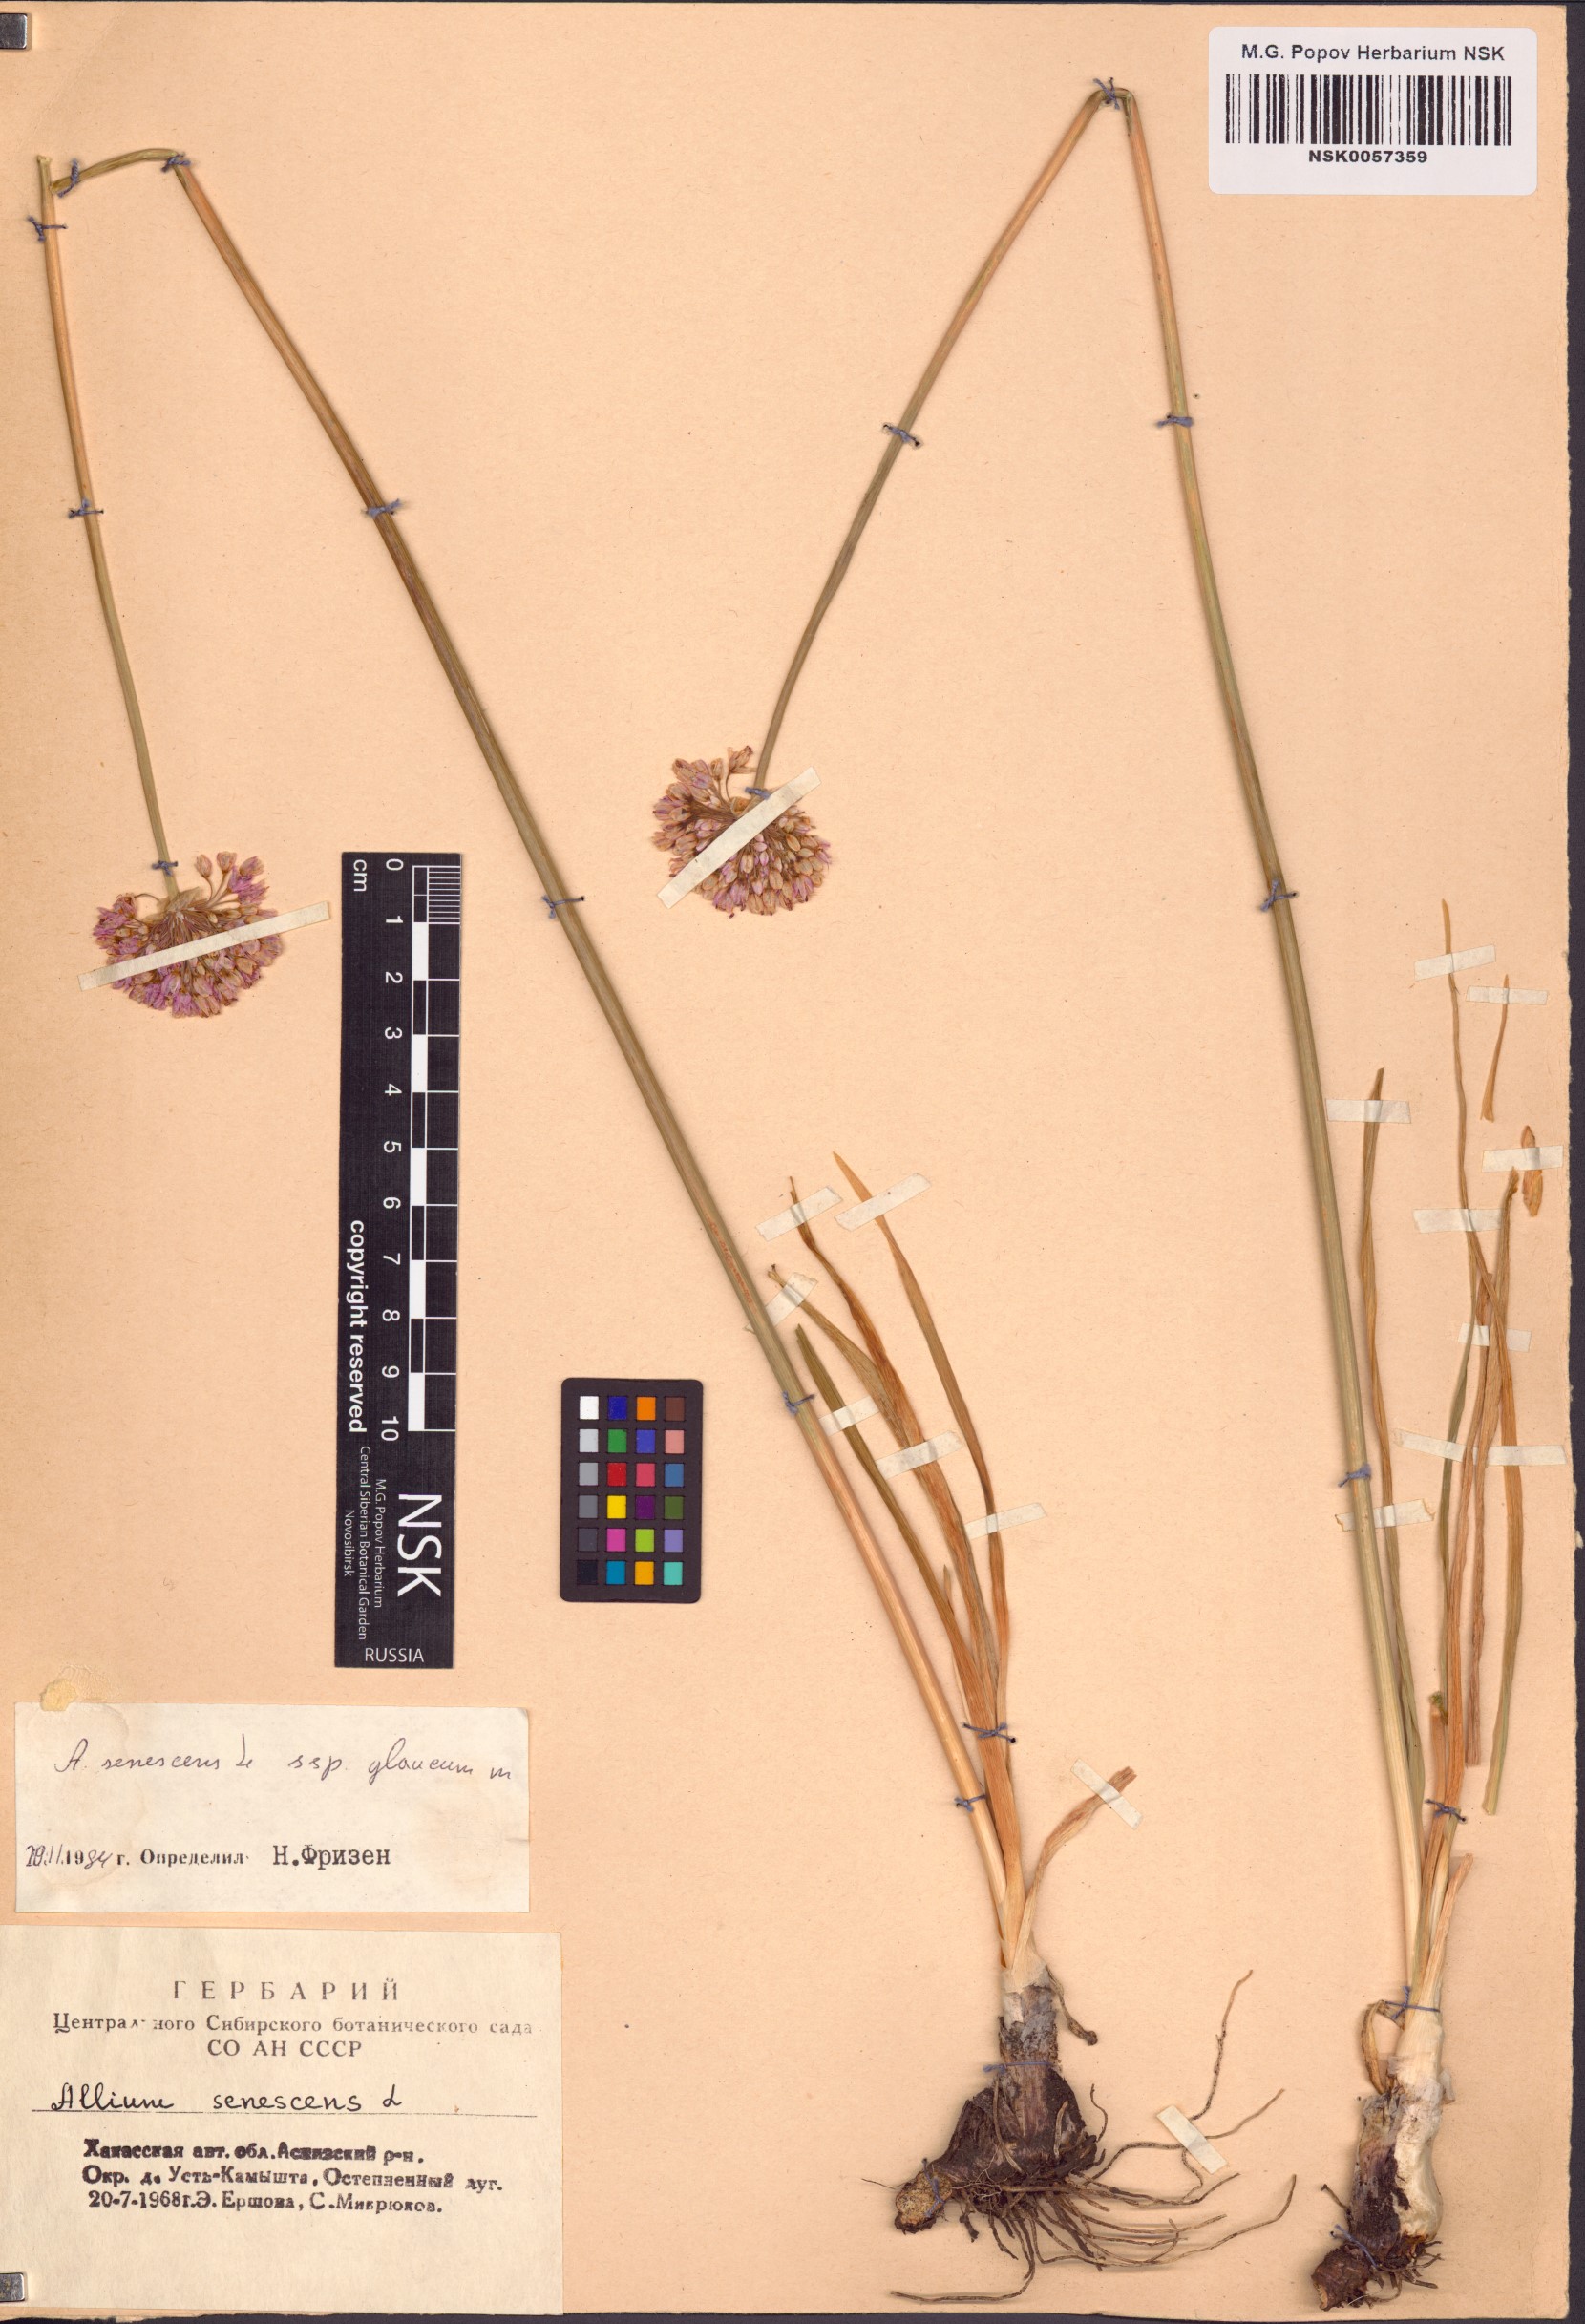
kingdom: Plantae
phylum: Tracheophyta
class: Liliopsida
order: Asparagales
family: Amaryllidaceae
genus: Allium
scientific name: Allium senescens
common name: German garlic
